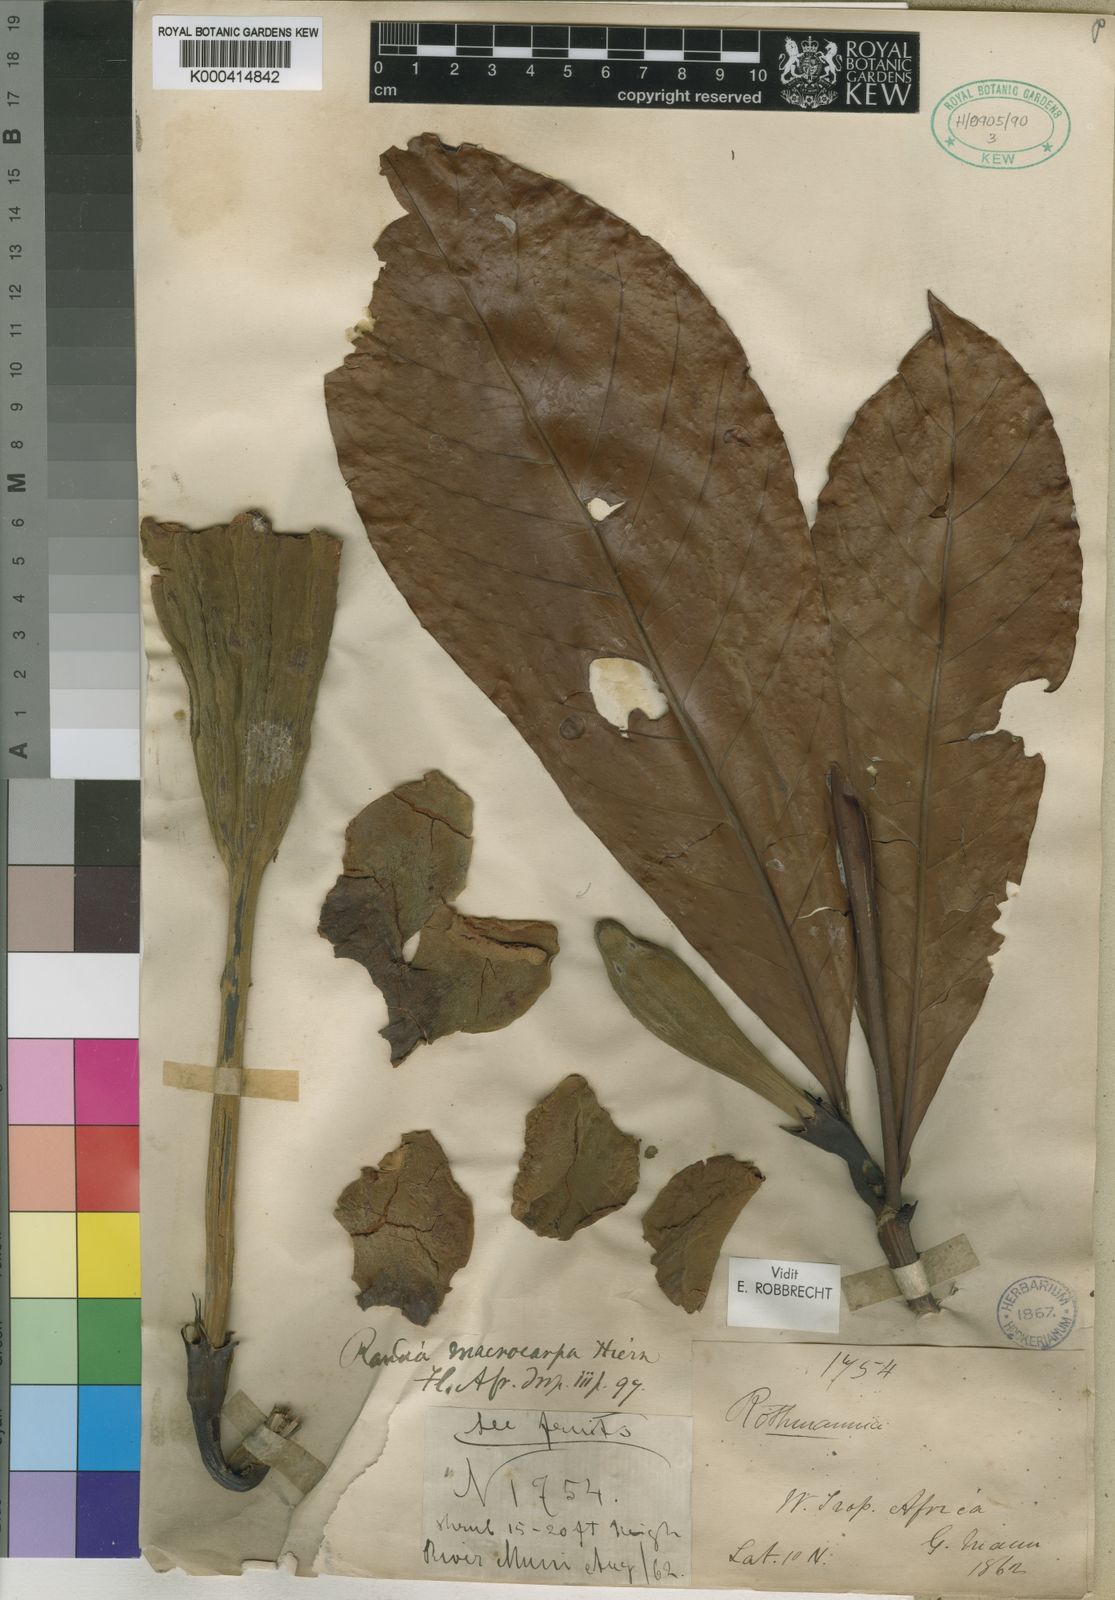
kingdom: Plantae
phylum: Tracheophyta
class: Magnoliopsida
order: Gentianales
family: Rubiaceae
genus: Rothmannia
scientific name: Rothmannia macrocarpa
